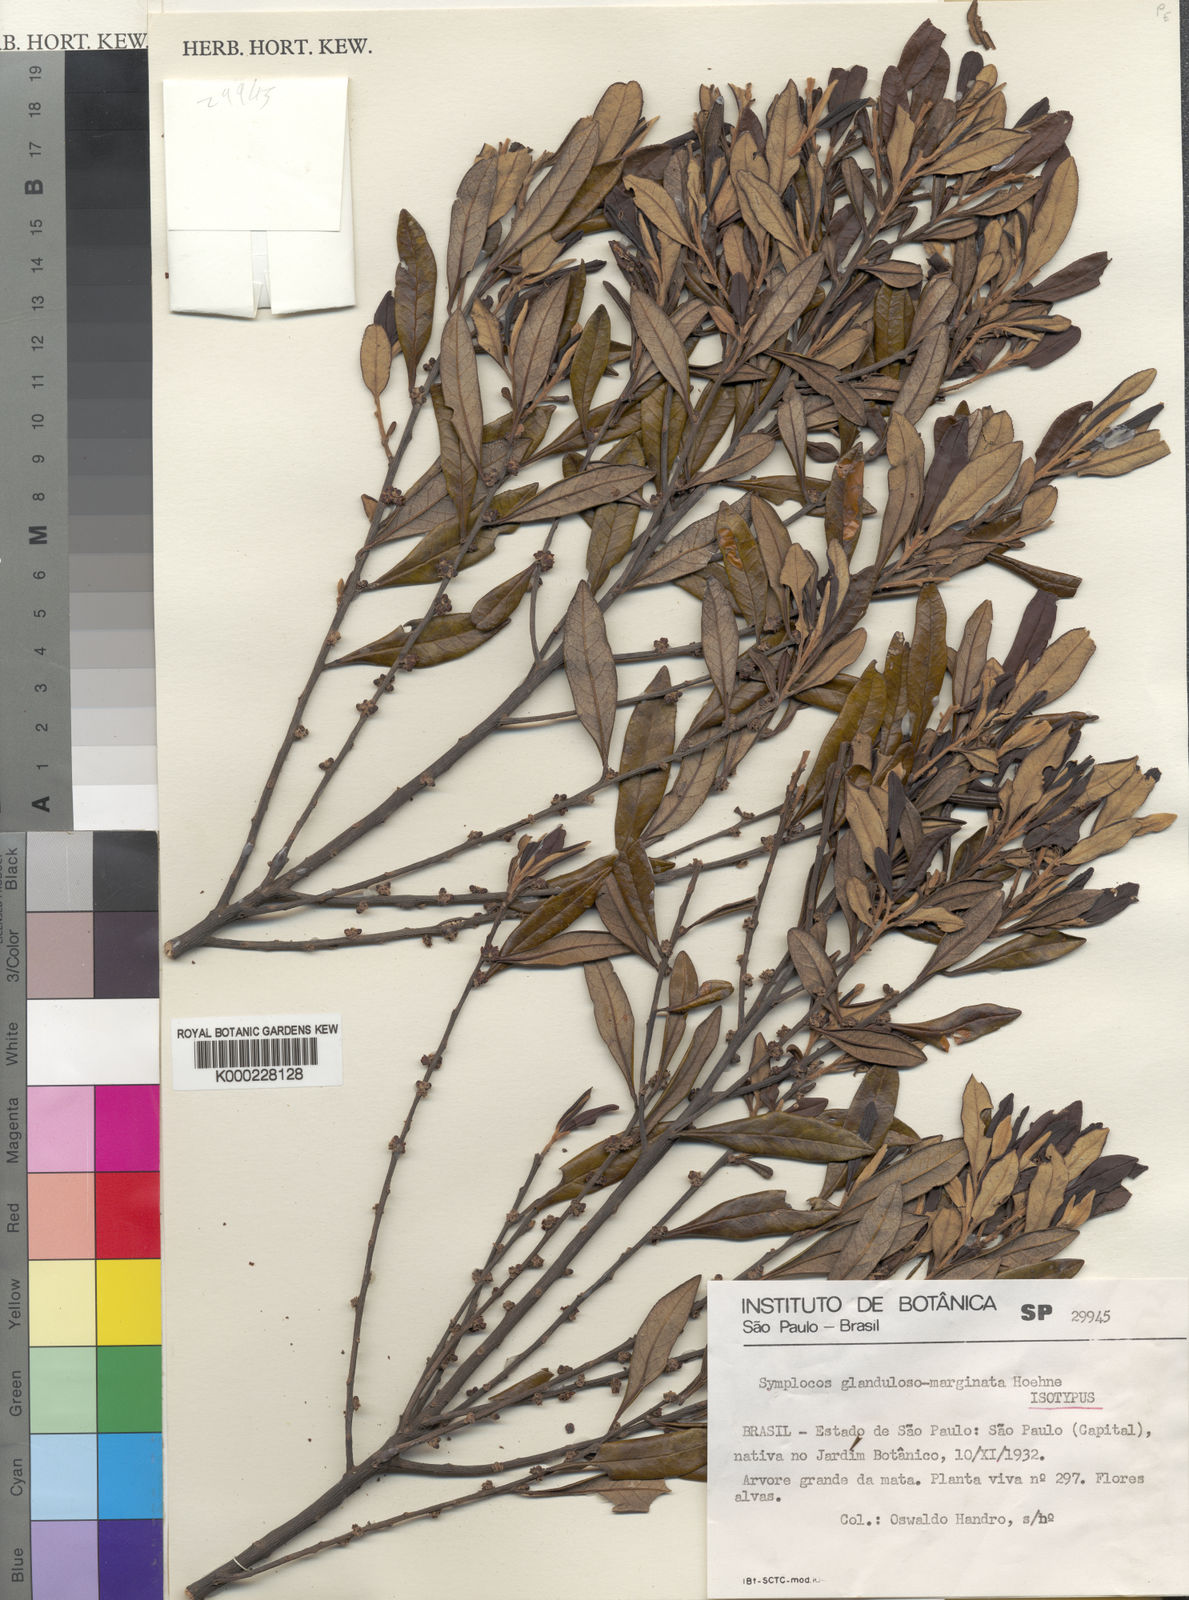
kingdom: Plantae
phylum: Tracheophyta
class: Magnoliopsida
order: Ericales
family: Symplocaceae
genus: Symplocos
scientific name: Symplocos glandulosomarginata
